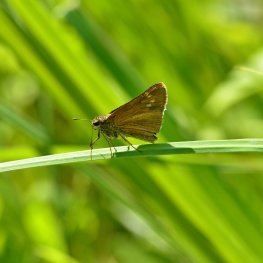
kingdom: Animalia
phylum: Arthropoda
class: Insecta
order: Lepidoptera
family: Hesperiidae
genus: Euphyes
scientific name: Euphyes dion
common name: Dion Skipper
